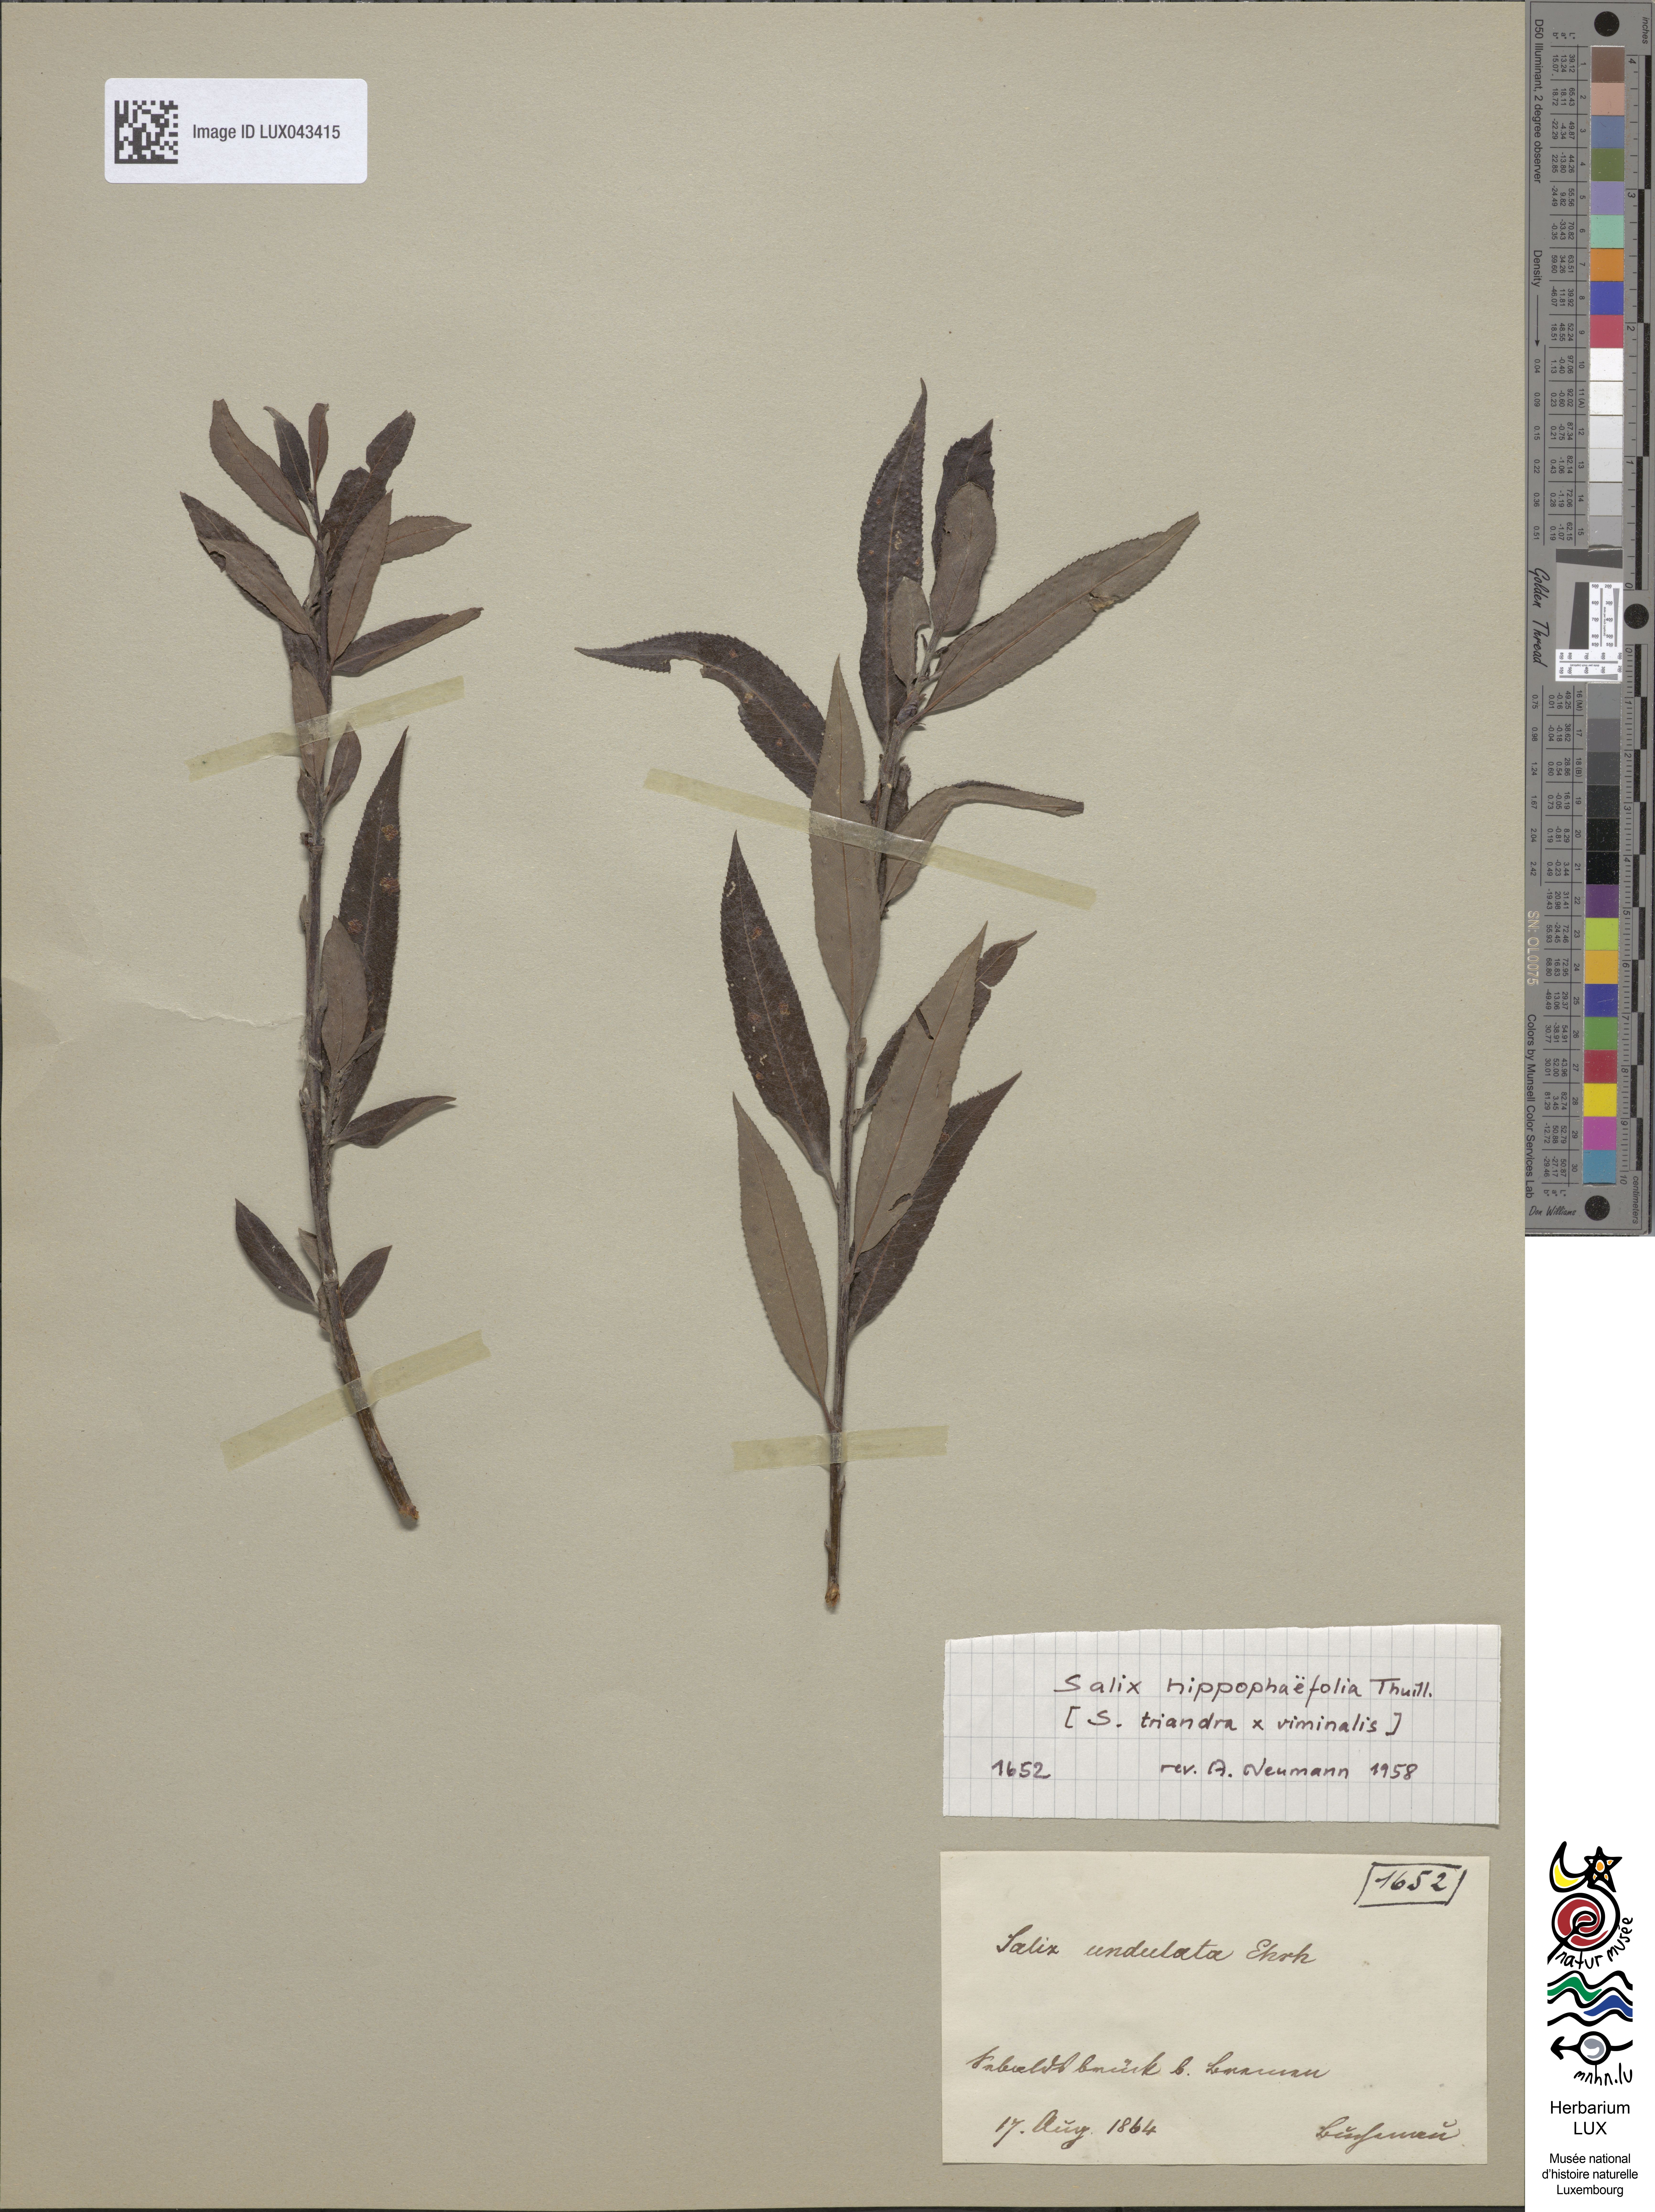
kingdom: Plantae
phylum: Tracheophyta
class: Magnoliopsida
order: Malpighiales
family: Salicaceae
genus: Salix
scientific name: Salix
